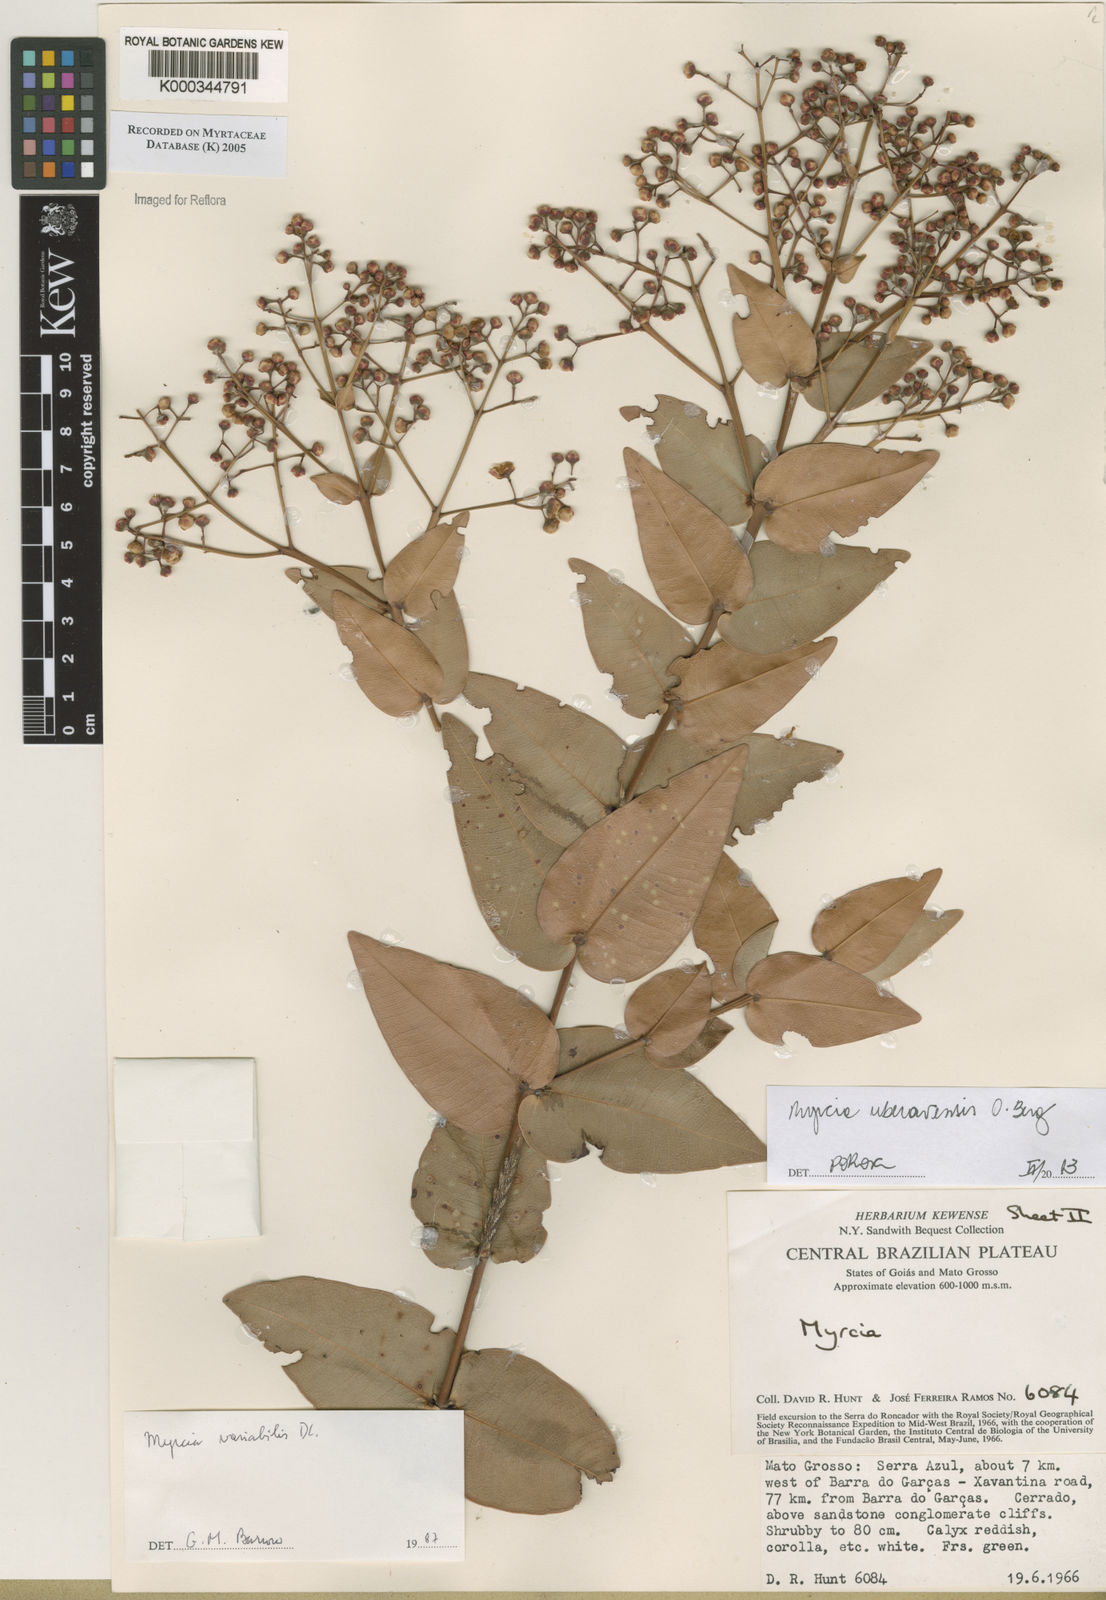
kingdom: Plantae
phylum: Tracheophyta
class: Magnoliopsida
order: Myrtales
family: Myrtaceae
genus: Myrcia
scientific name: Myrcia variabilis
